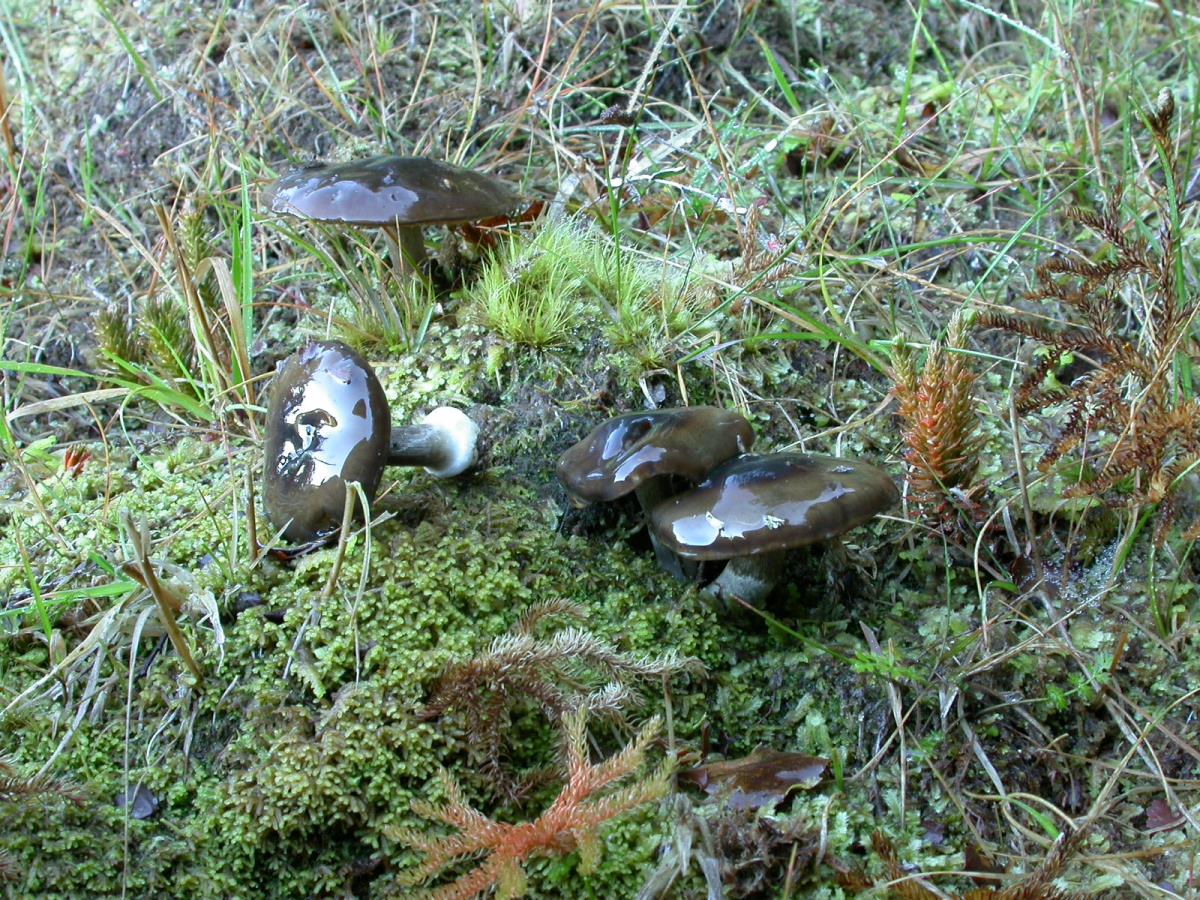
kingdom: Fungi
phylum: Basidiomycota
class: Agaricomycetes
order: Agaricales
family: Cortinariaceae
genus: Cortinarius
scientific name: Cortinarius vitreopileatus
